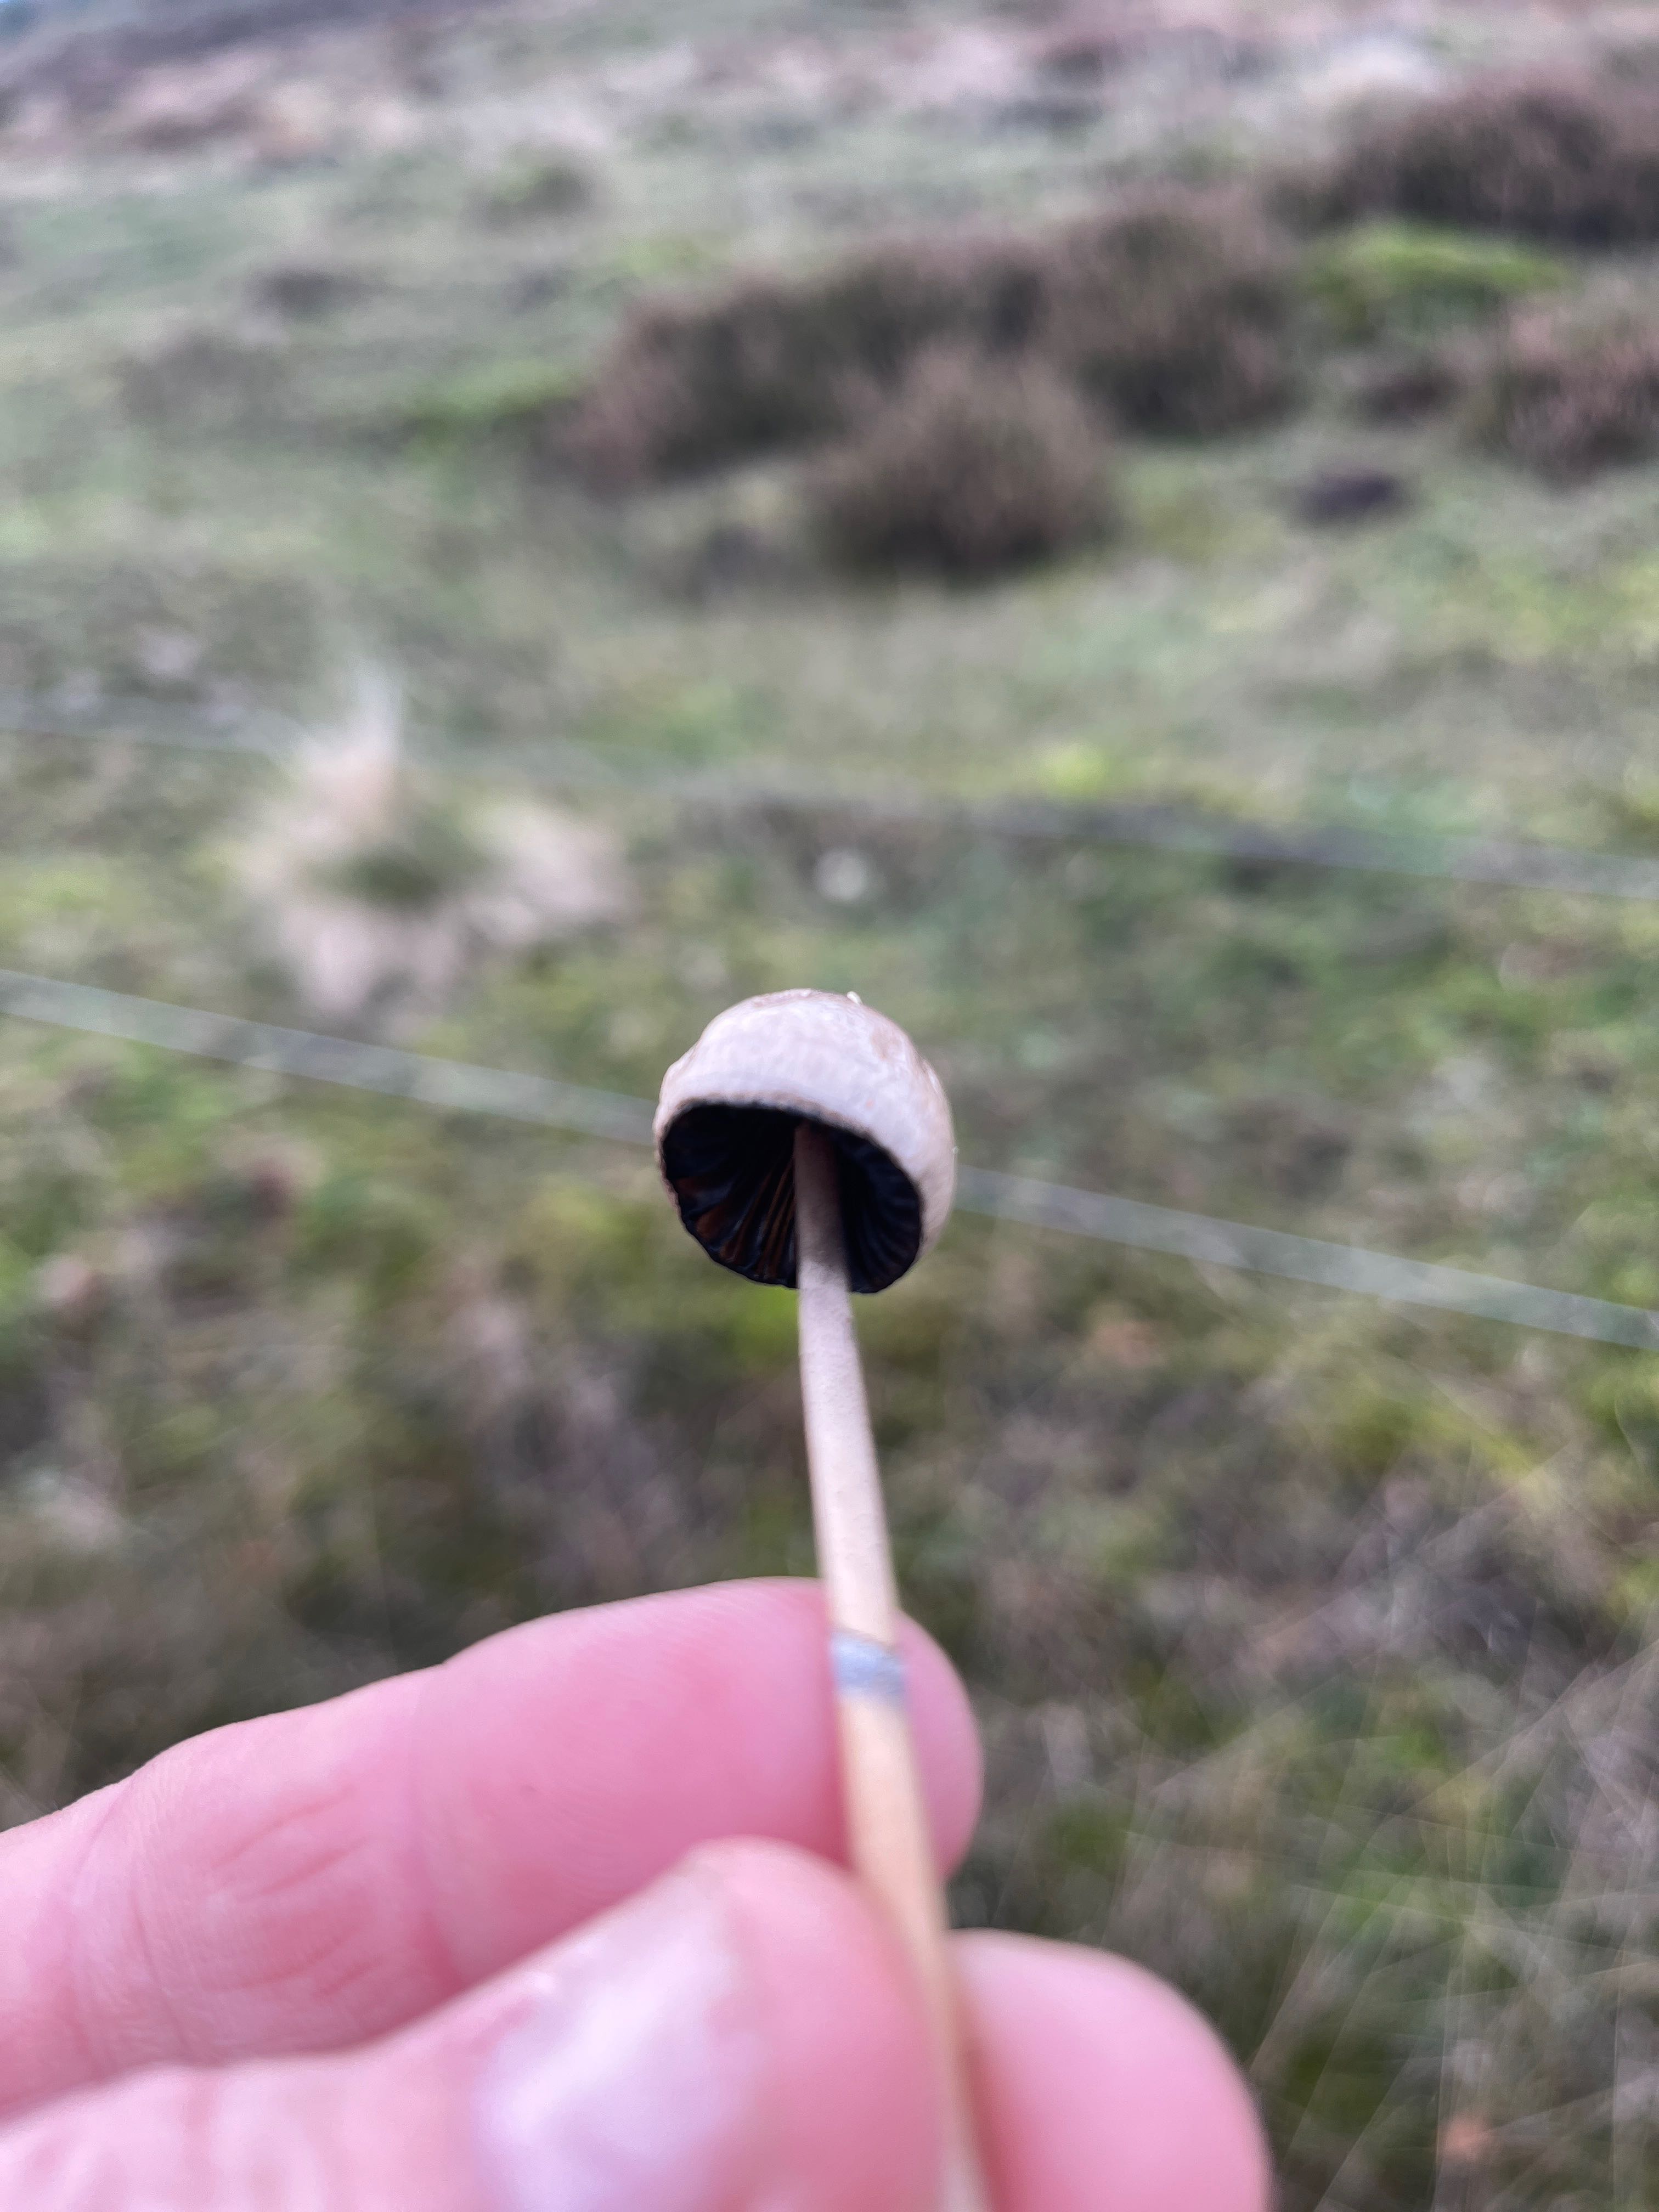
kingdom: Fungi
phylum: Basidiomycota
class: Agaricomycetes
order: Agaricales
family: Bolbitiaceae
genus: Panaeolus
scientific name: Panaeolus semiovatus
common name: ring-glanshat
